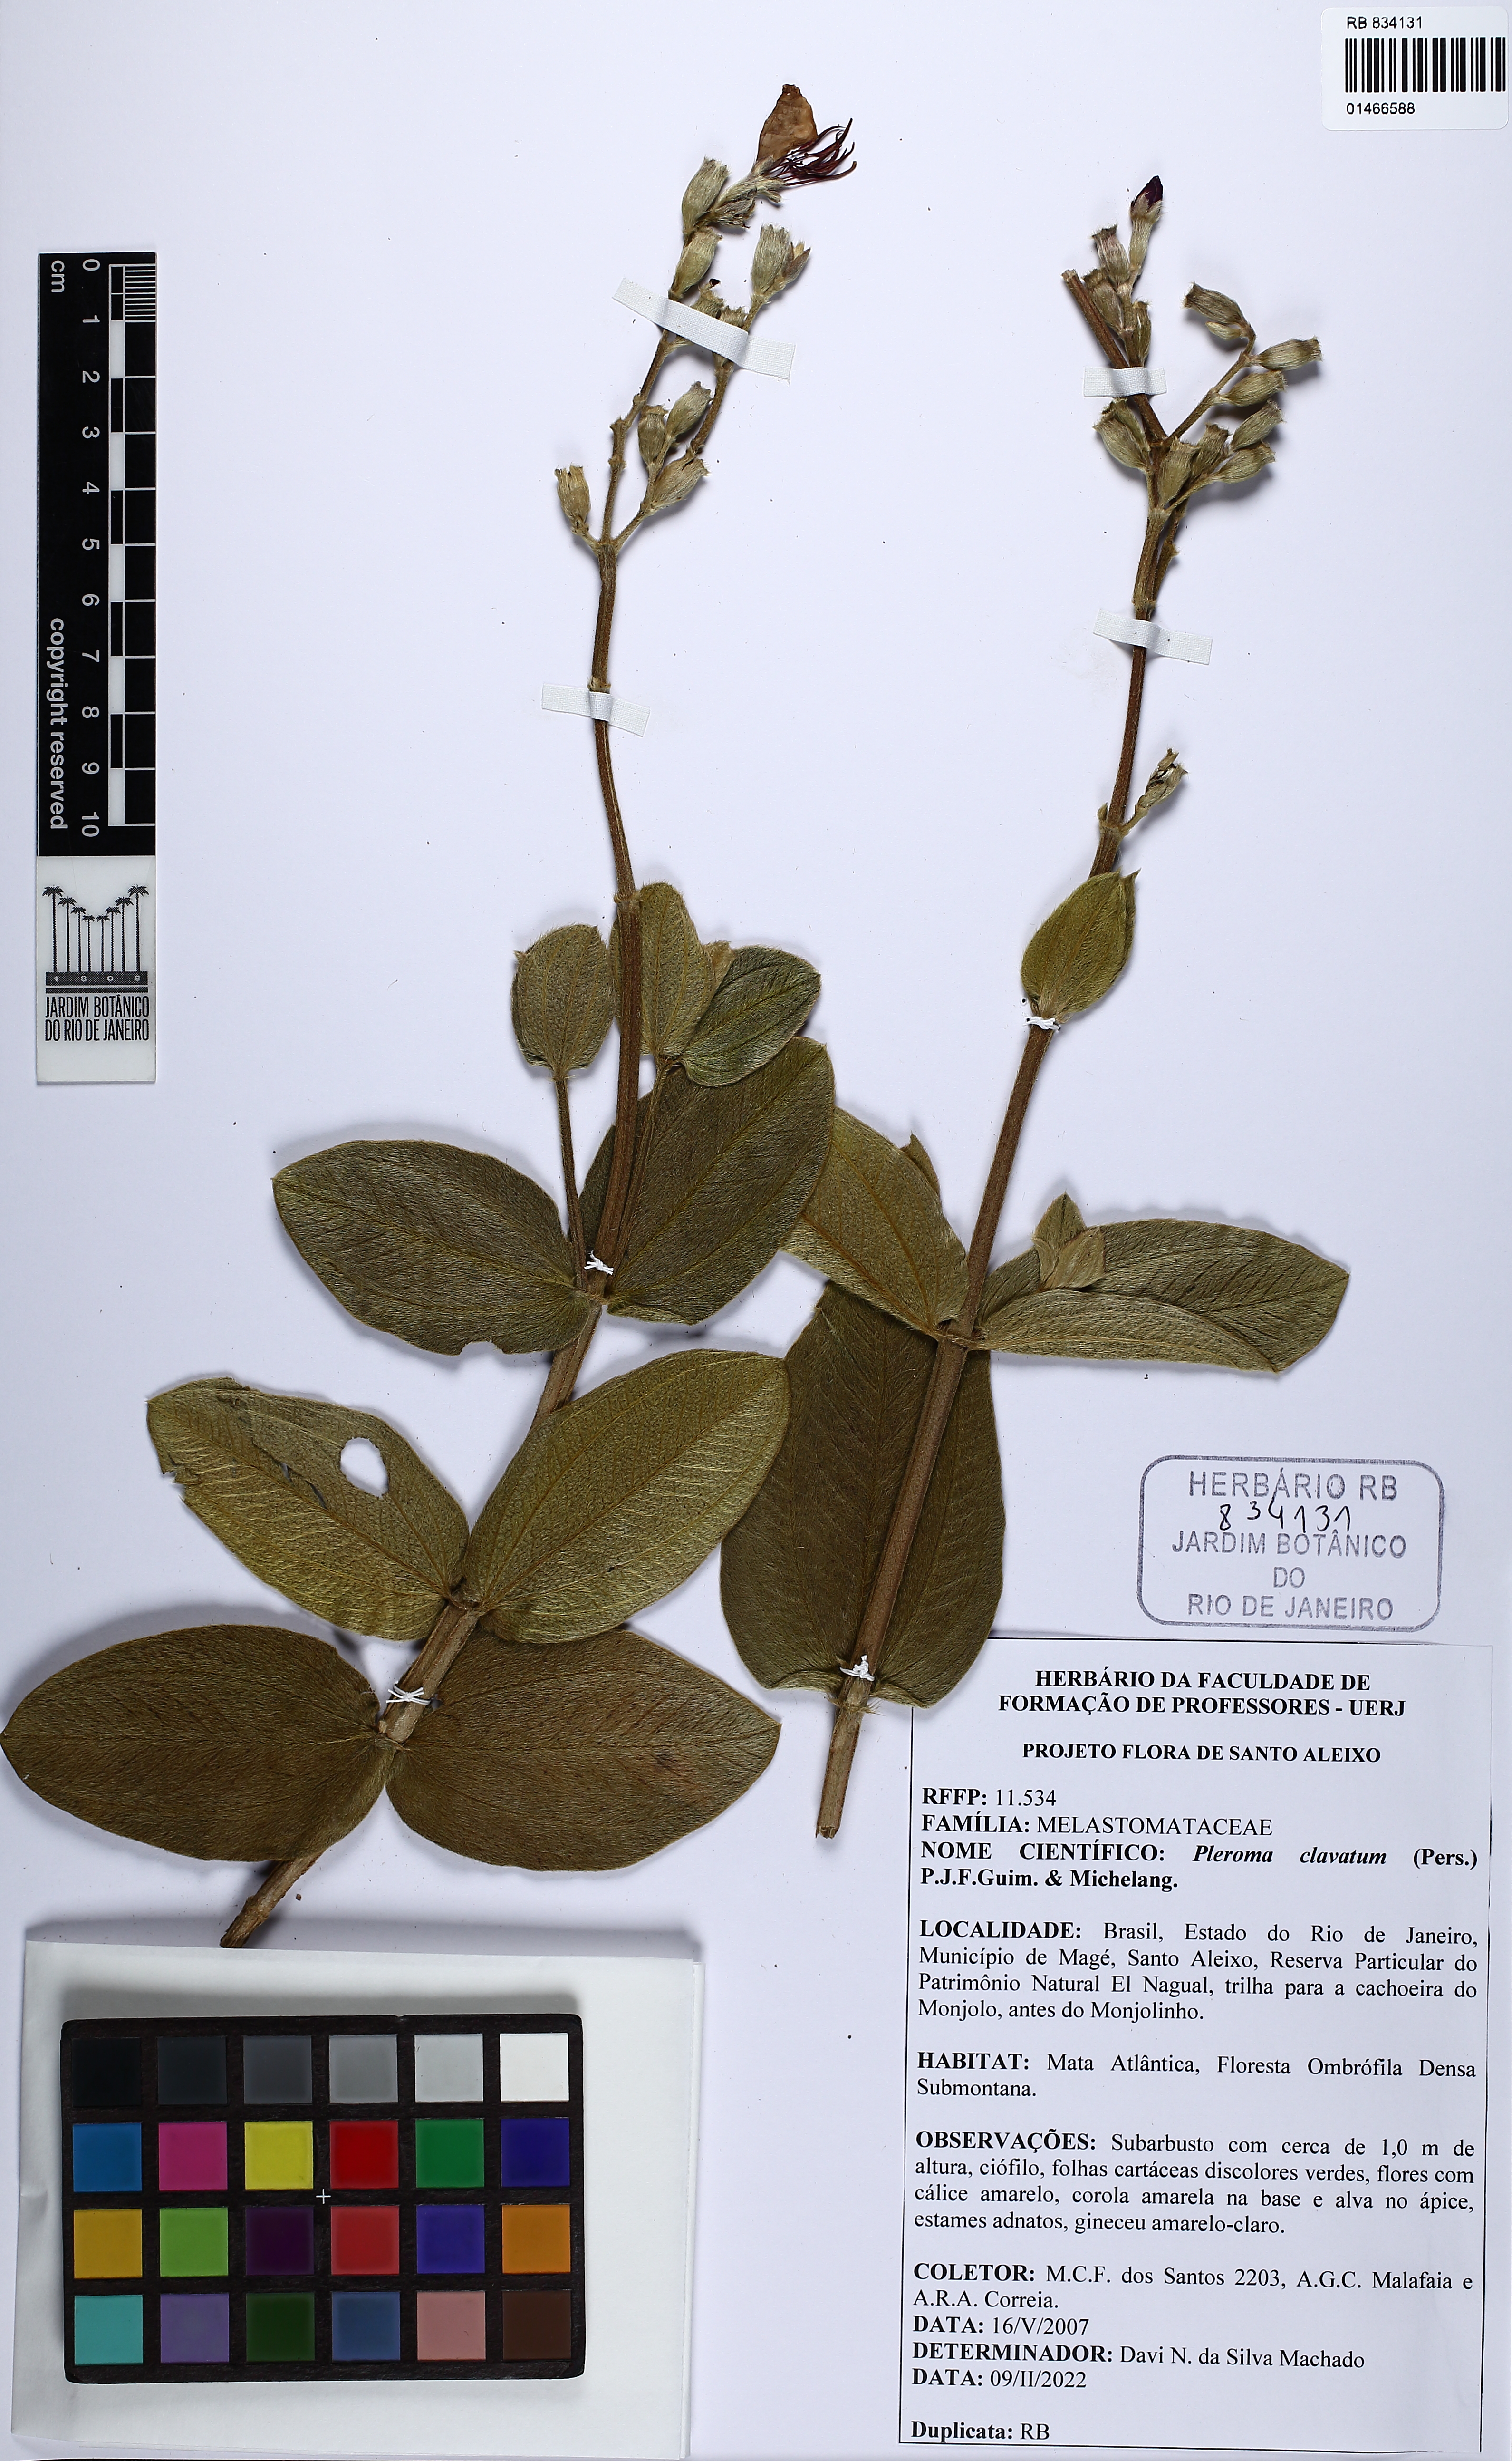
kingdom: Plantae
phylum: Tracheophyta
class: Magnoliopsida
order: Myrtales
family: Melastomataceae
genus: Pleroma
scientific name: Pleroma clavatum
